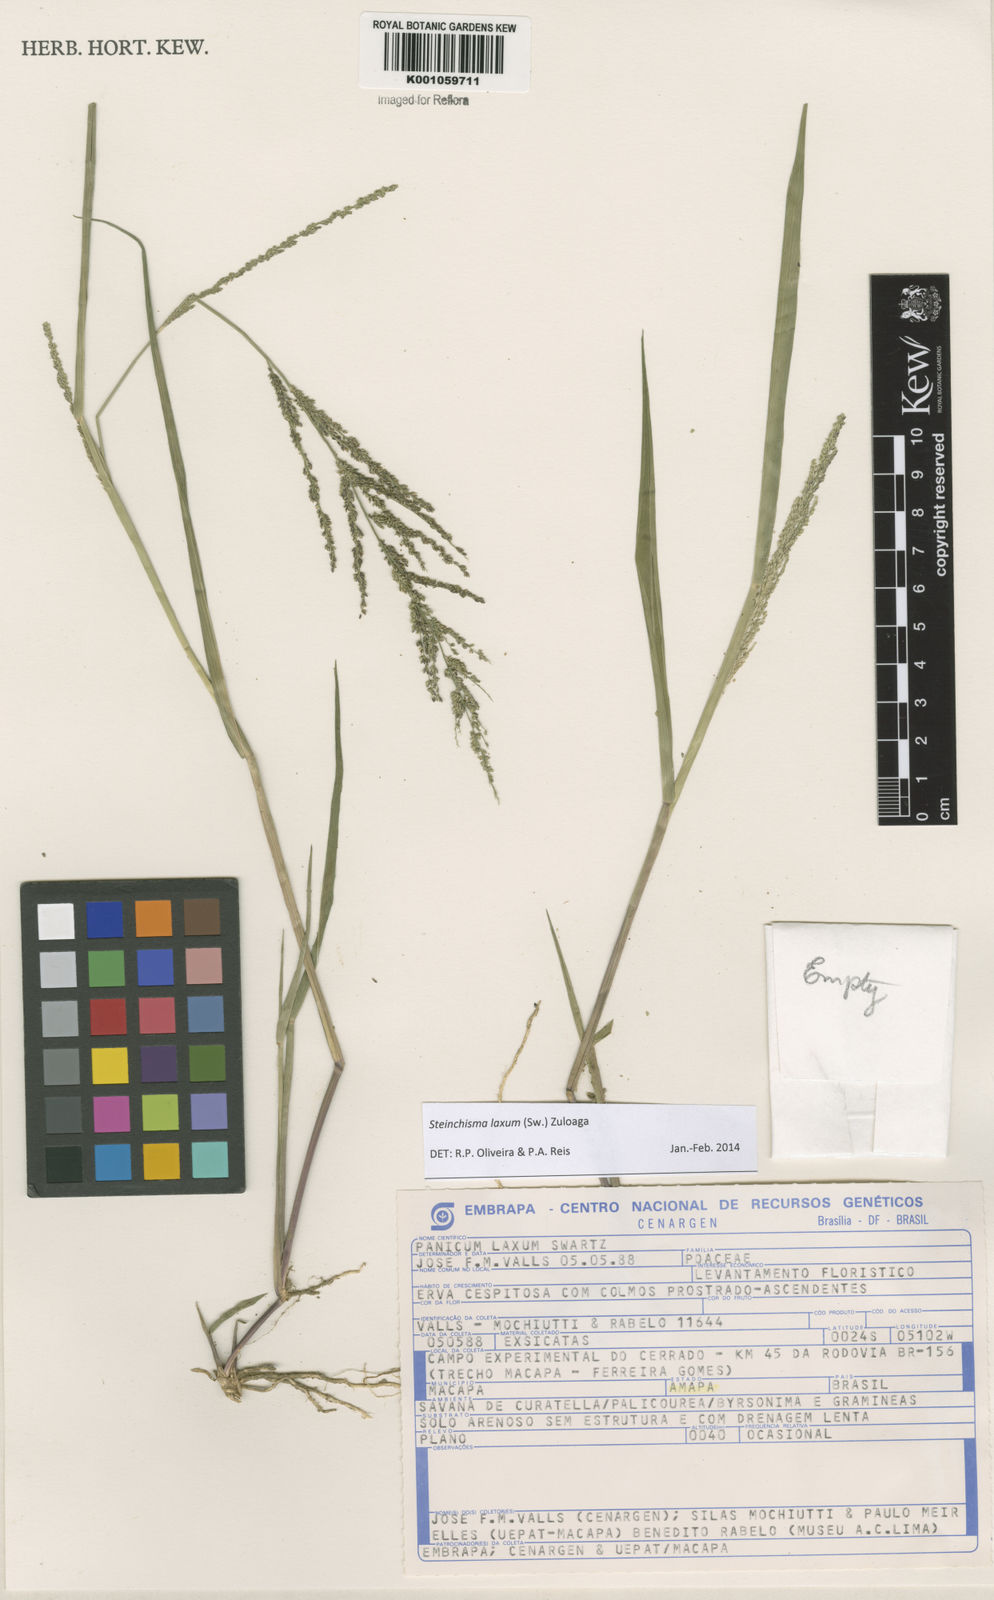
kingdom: Plantae
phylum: Tracheophyta
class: Liliopsida
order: Poales
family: Poaceae
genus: Steinchisma
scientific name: Steinchisma laxum
